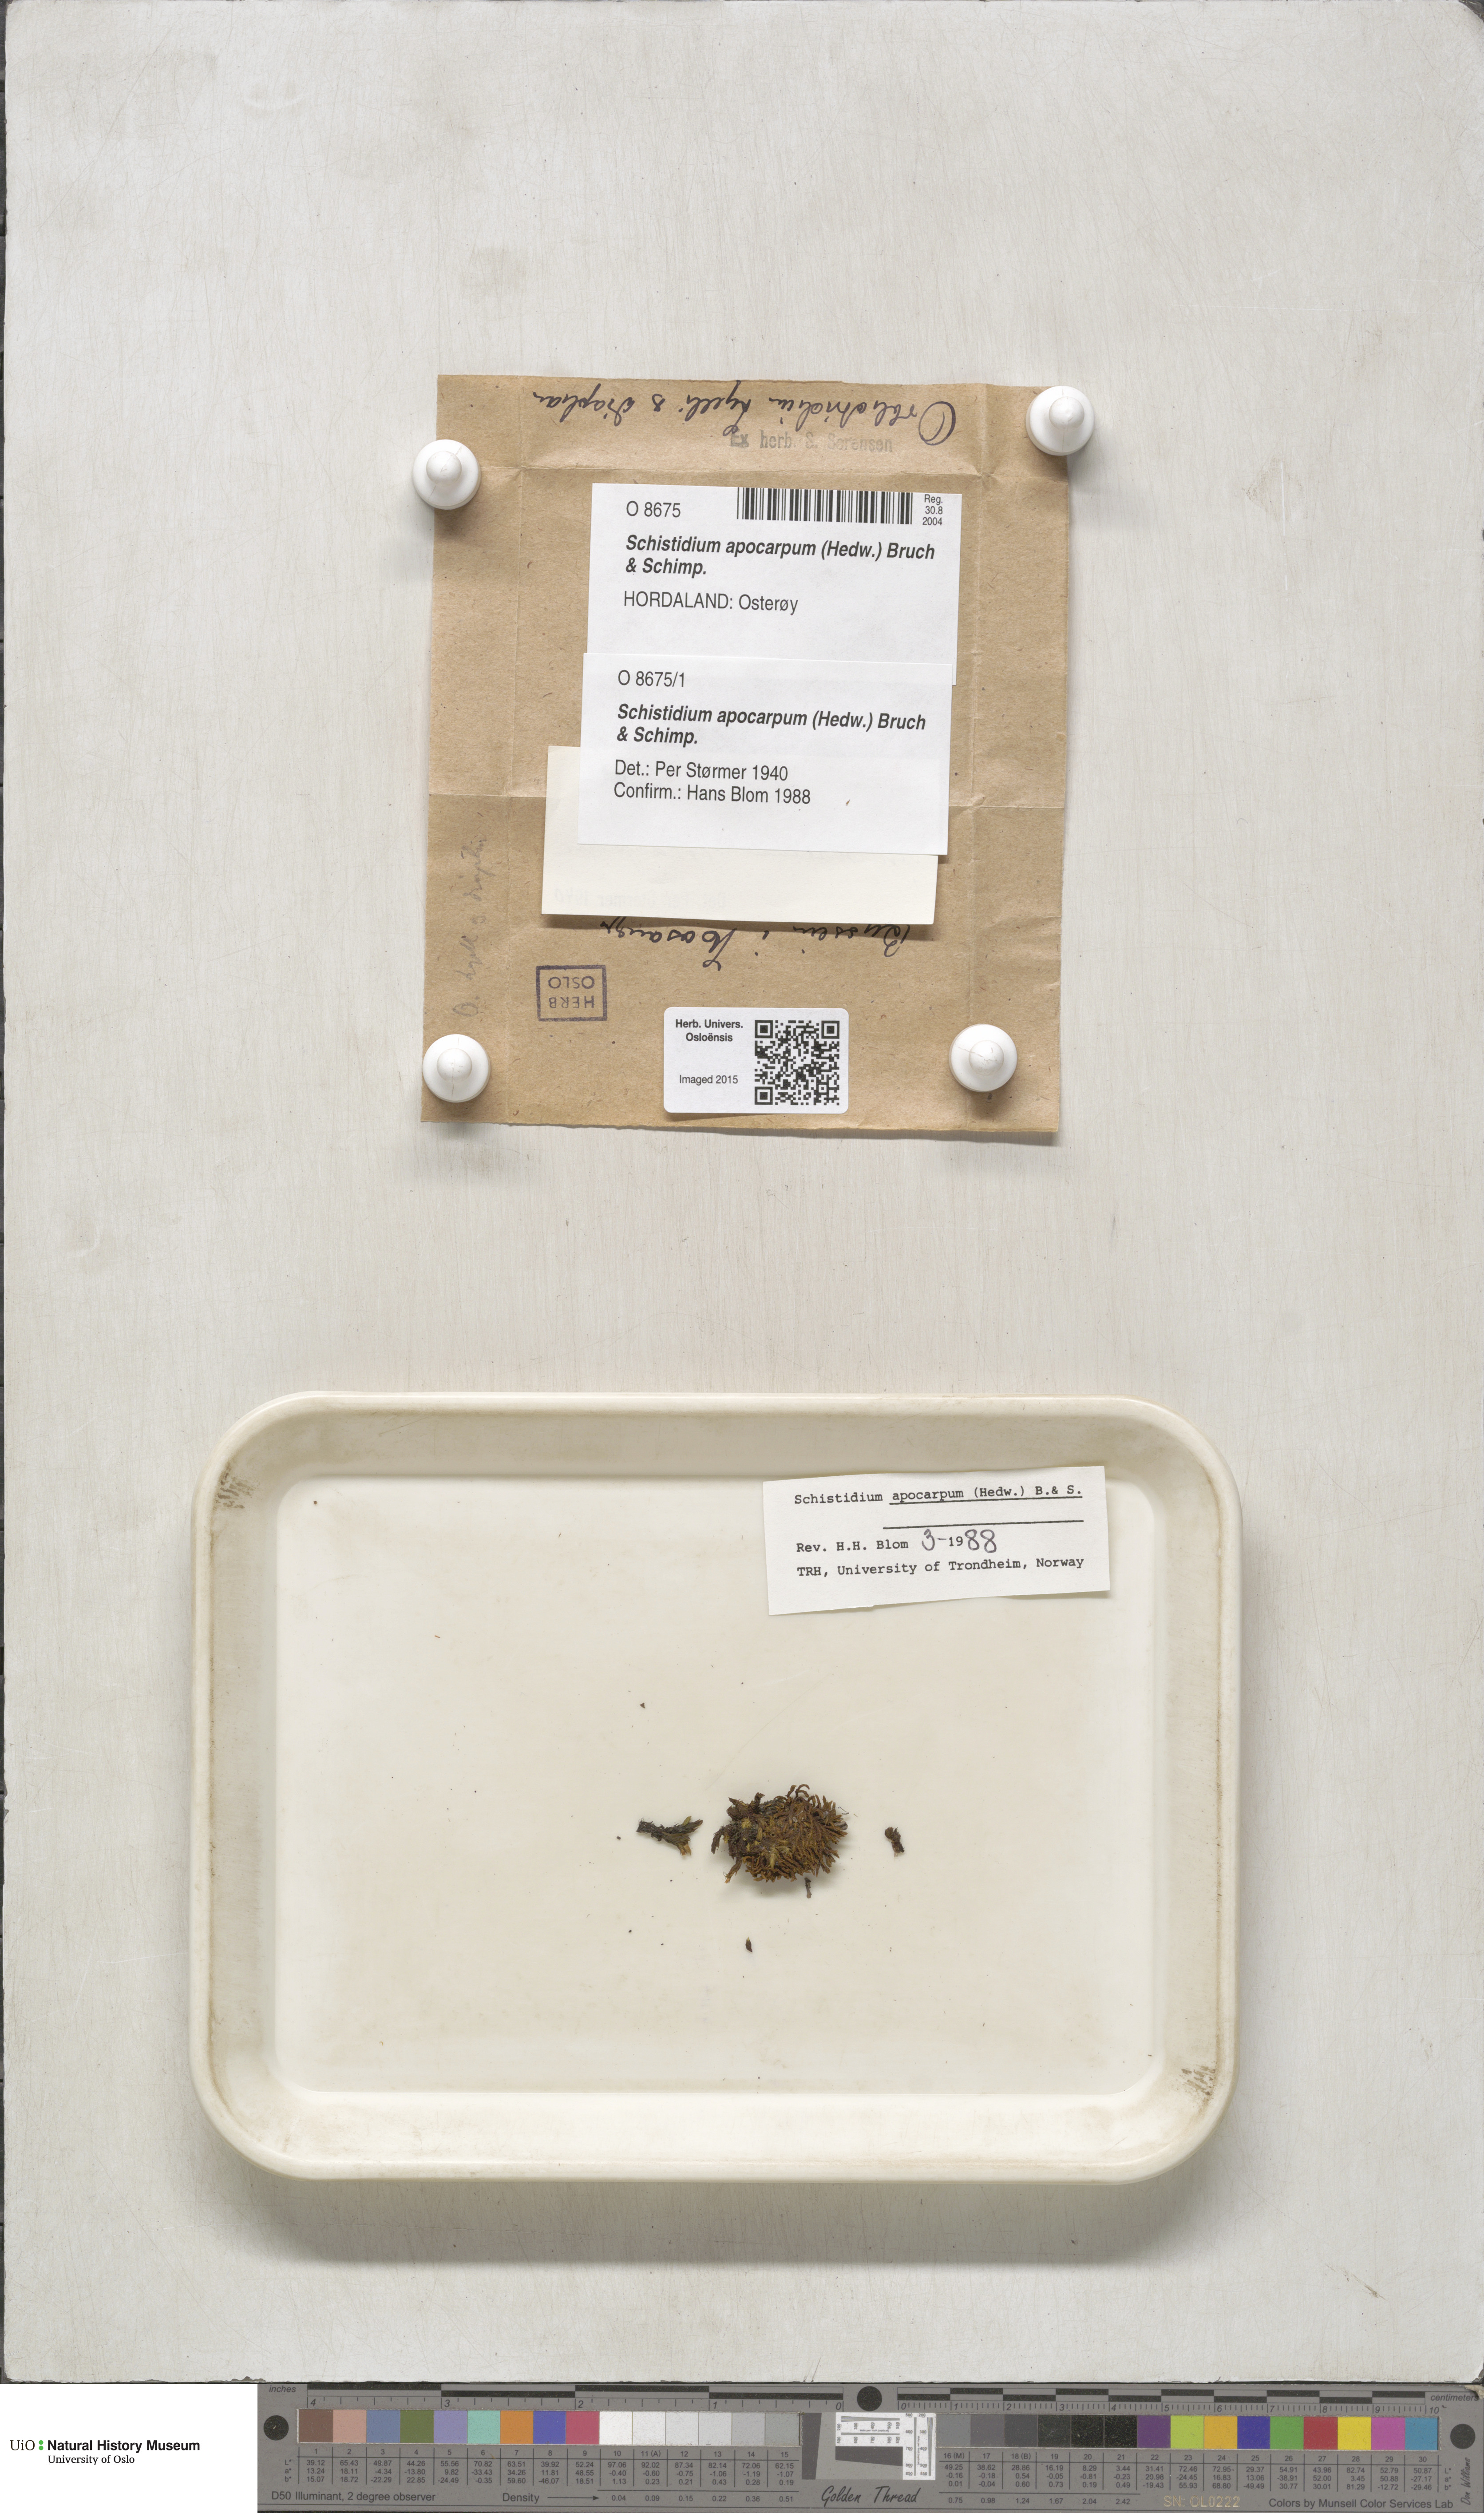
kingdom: Plantae
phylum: Bryophyta
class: Bryopsida
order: Grimmiales
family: Grimmiaceae
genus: Schistidium
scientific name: Schistidium apocarpum
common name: Radiate bloom moss
